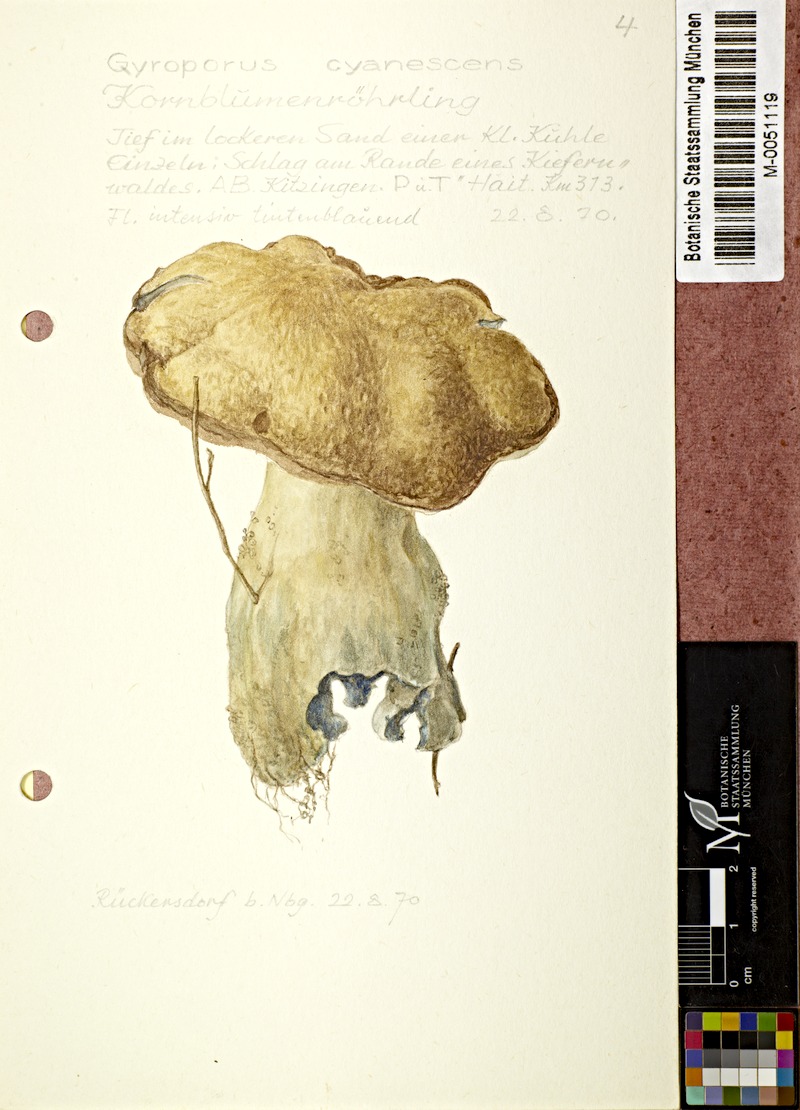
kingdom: Fungi
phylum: Basidiomycota
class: Agaricomycetes
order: Boletales
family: Gyroporaceae
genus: Gyroporus
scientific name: Gyroporus cyanescens
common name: Cornflower bolete
